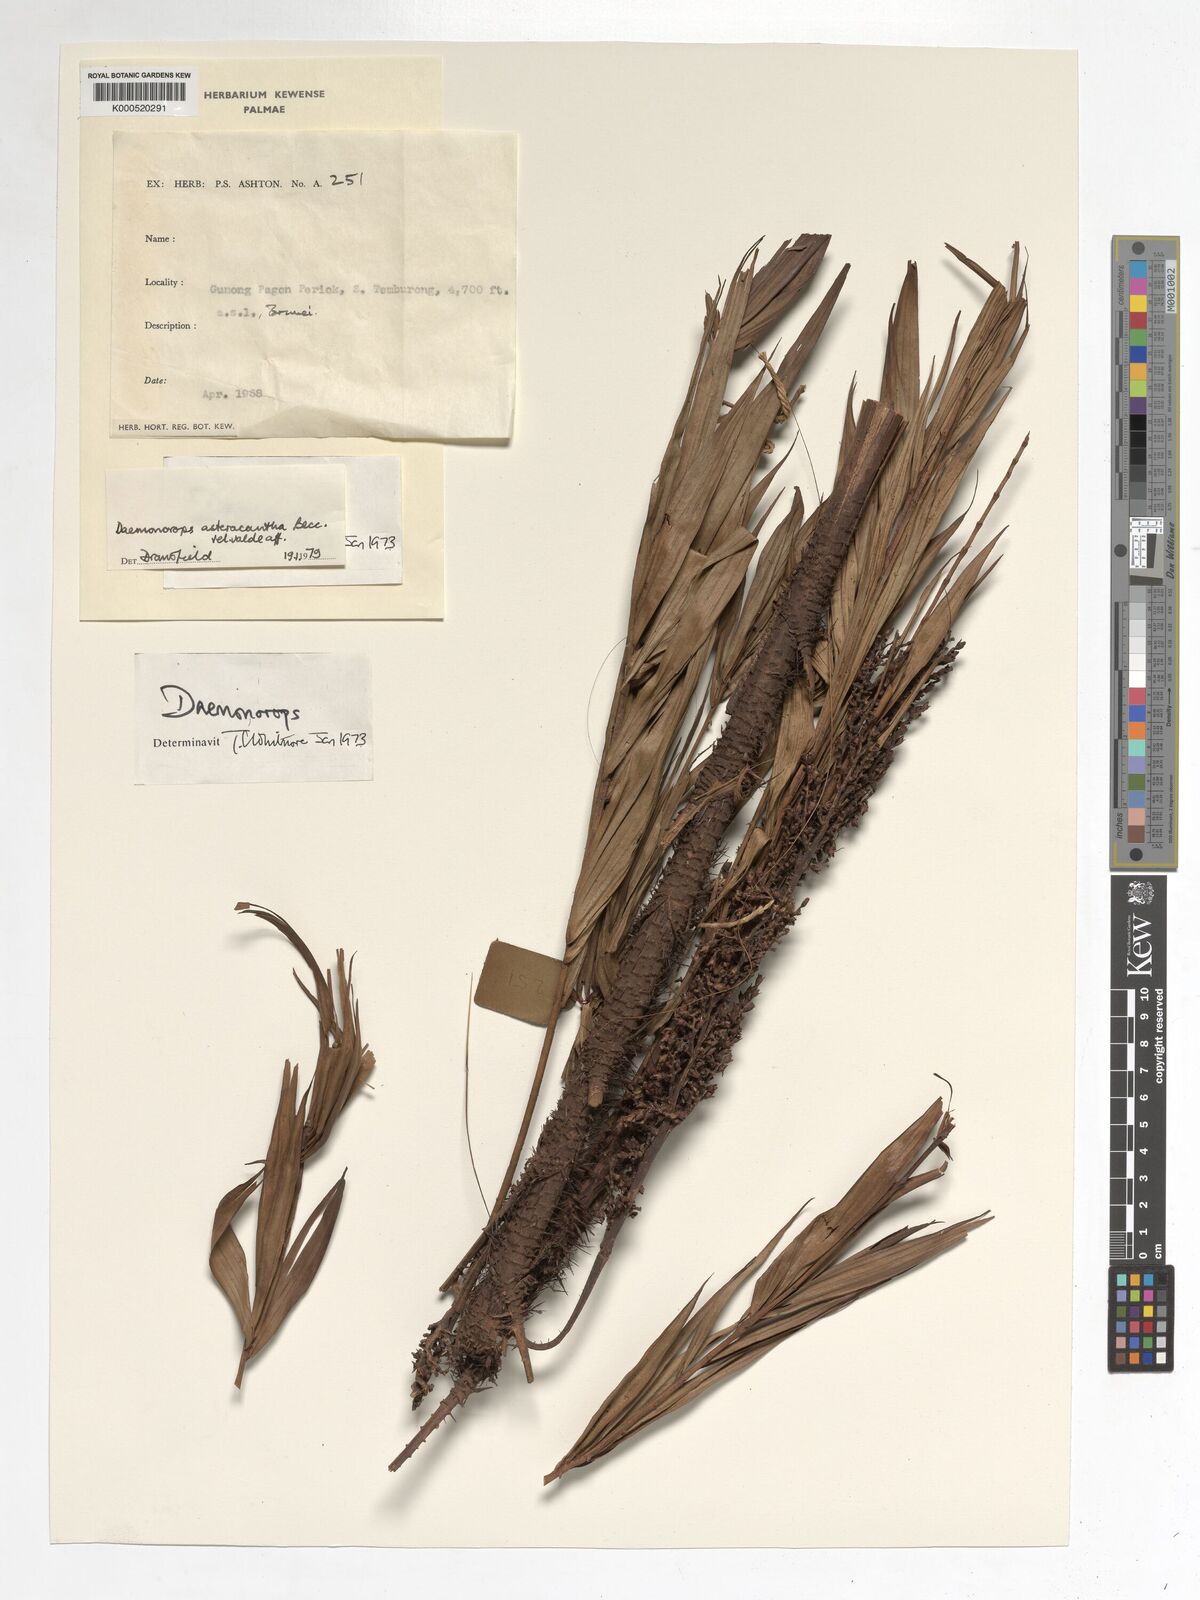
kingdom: Plantae
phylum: Tracheophyta
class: Liliopsida
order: Arecales
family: Arecaceae
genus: Calamus
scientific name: Calamus asteracanthus
